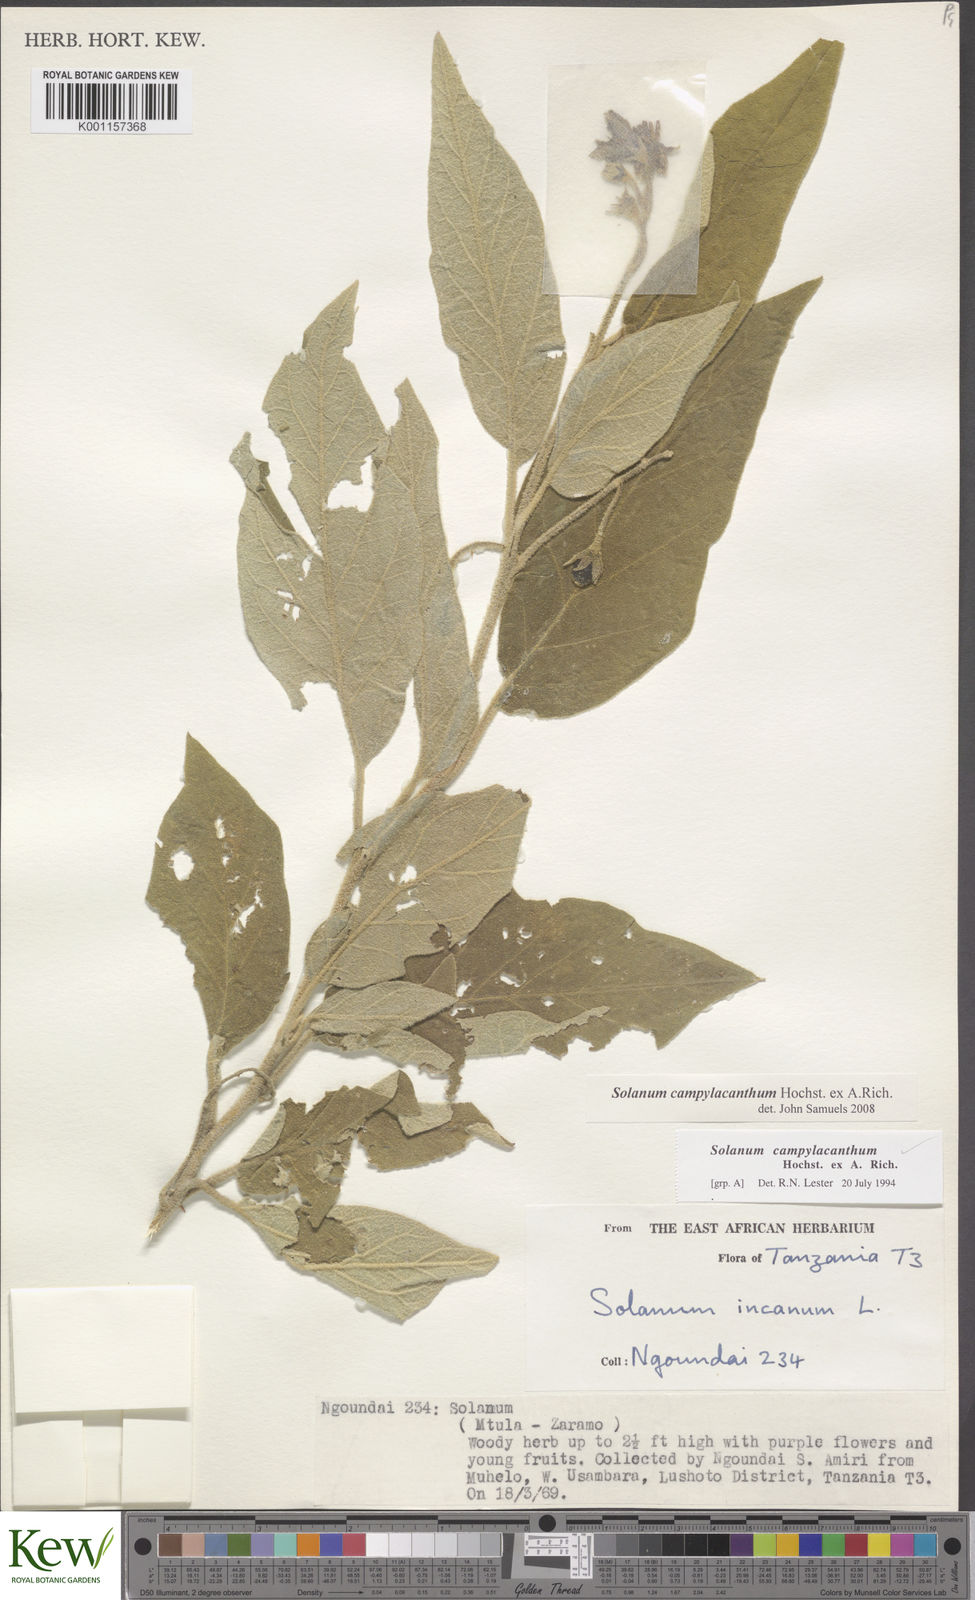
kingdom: Plantae
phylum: Tracheophyta
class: Magnoliopsida
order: Solanales
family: Solanaceae
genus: Solanum
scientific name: Solanum campylacanthum
